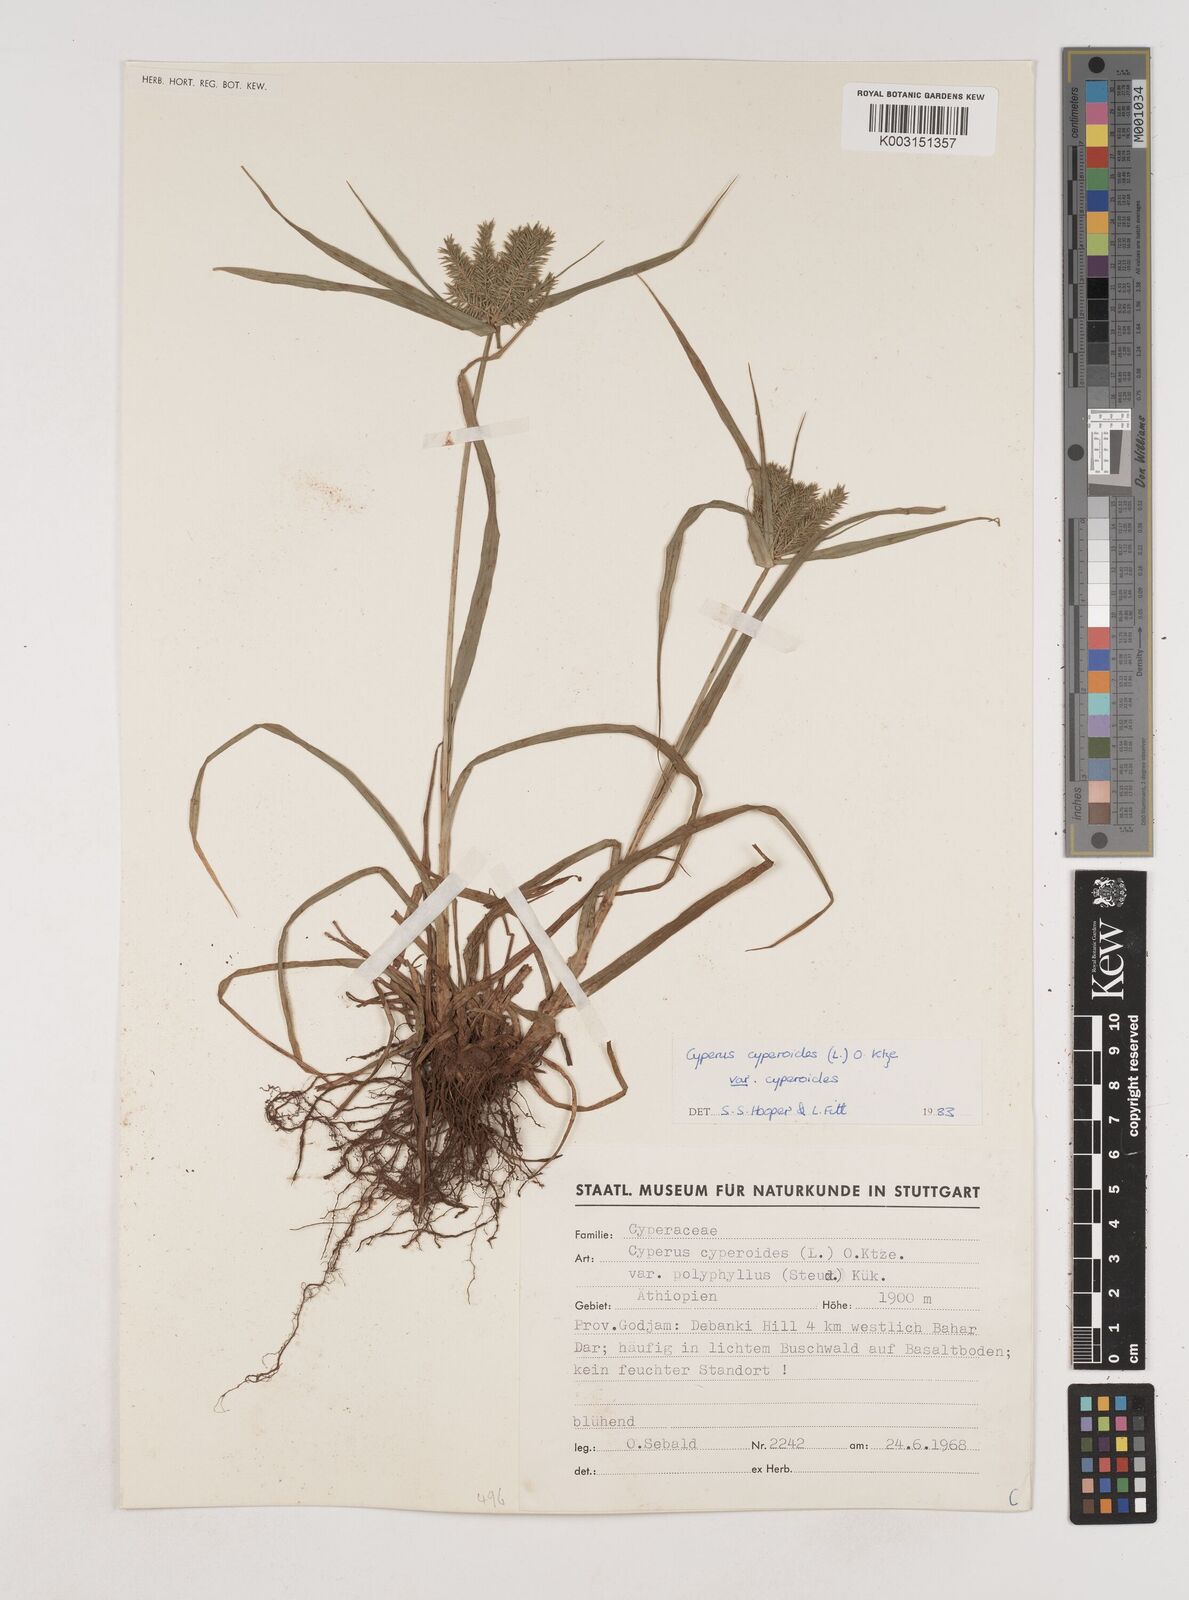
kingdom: Plantae
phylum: Tracheophyta
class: Liliopsida
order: Poales
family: Cyperaceae
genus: Cyperus
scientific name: Cyperus cyperoides
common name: Pacific island flat sedge
